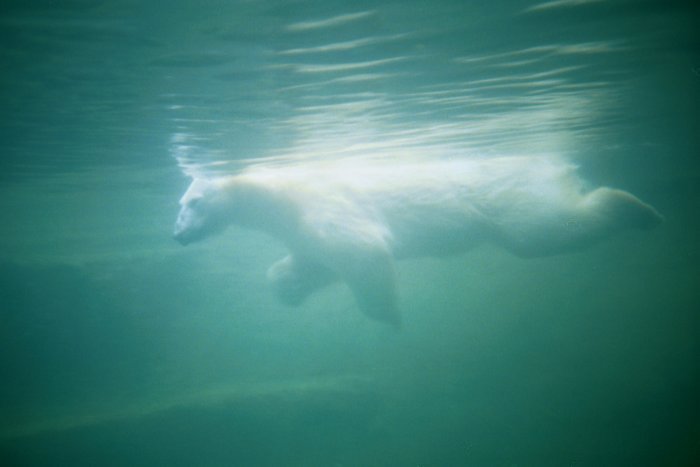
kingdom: Animalia
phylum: Chordata
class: Mammalia
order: Carnivora
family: Ursidae
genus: Ursus
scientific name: Ursus maritimus
